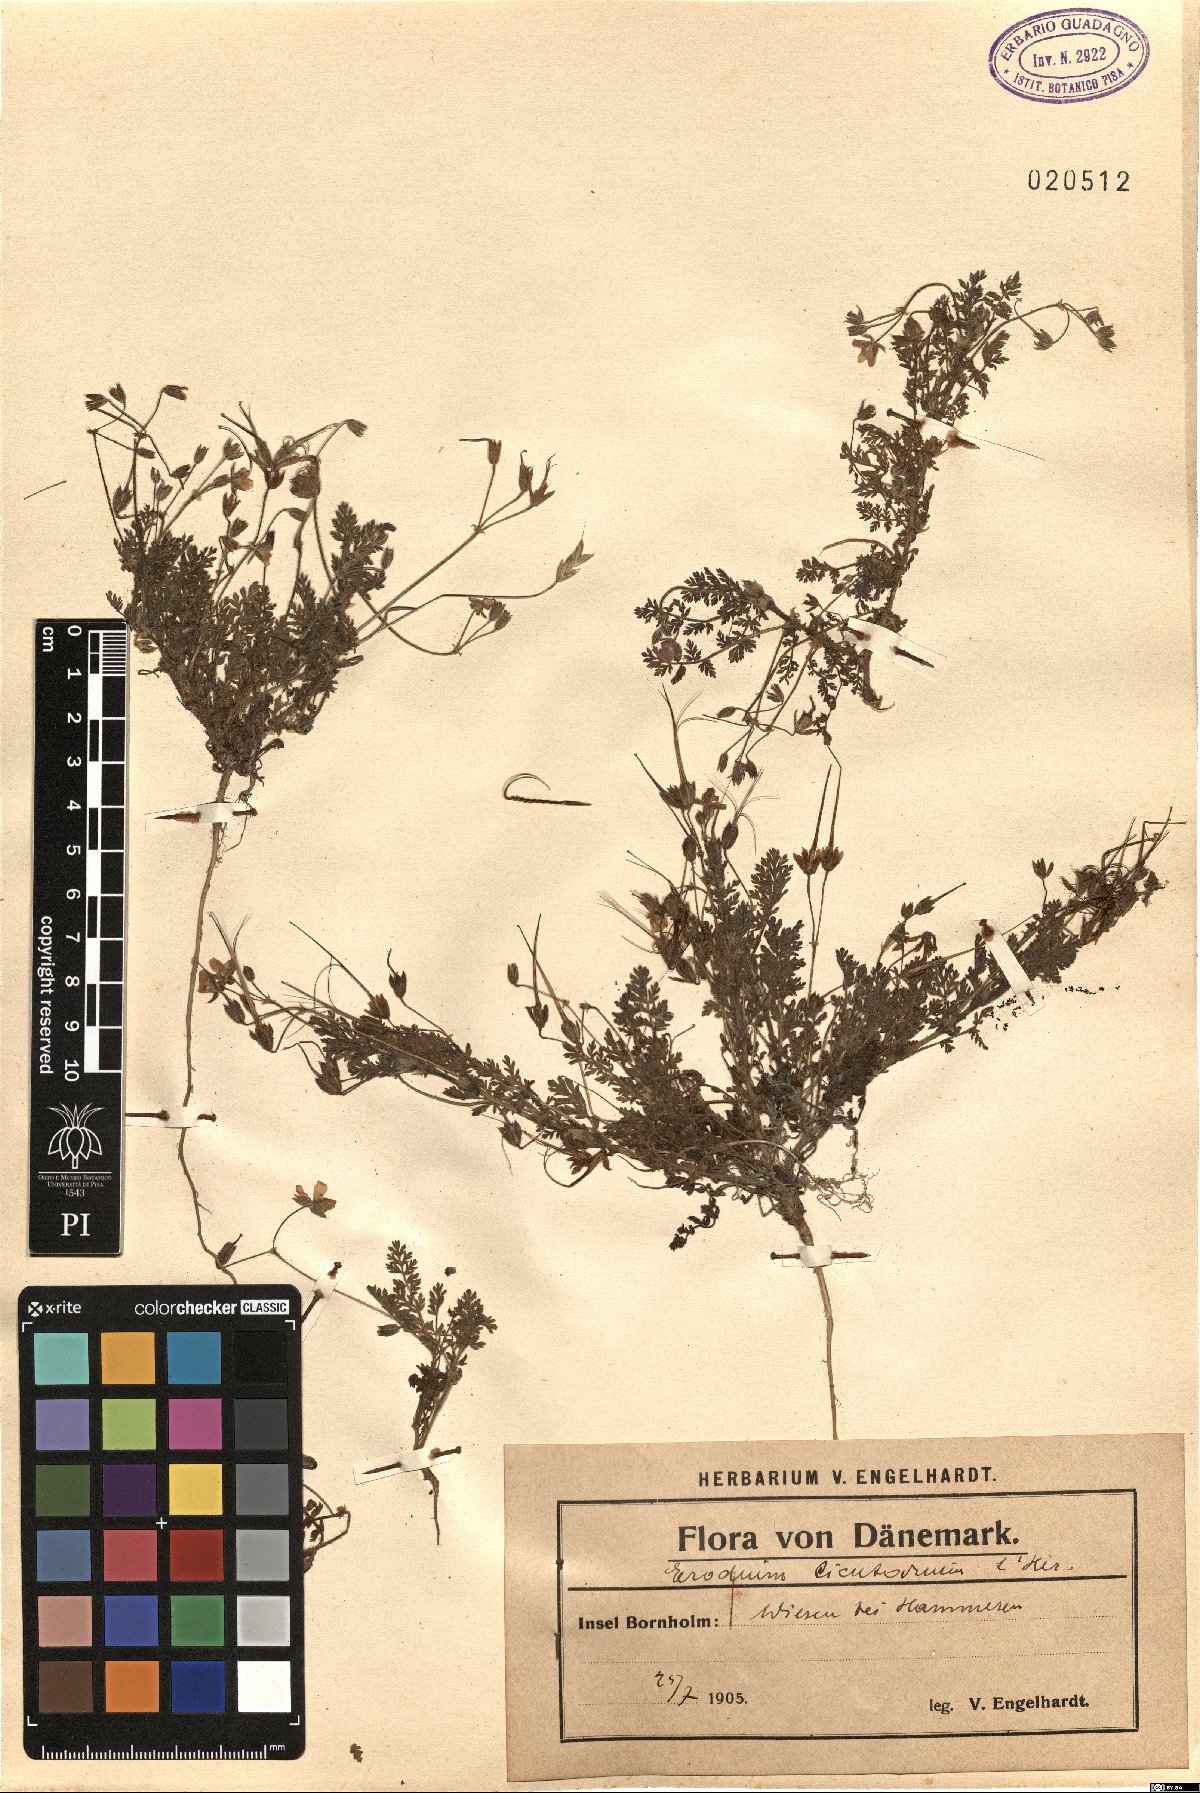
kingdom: Plantae
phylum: Tracheophyta
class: Magnoliopsida
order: Geraniales
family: Geraniaceae
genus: Erodium
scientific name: Erodium cicutarium
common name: Common stork's-bill
